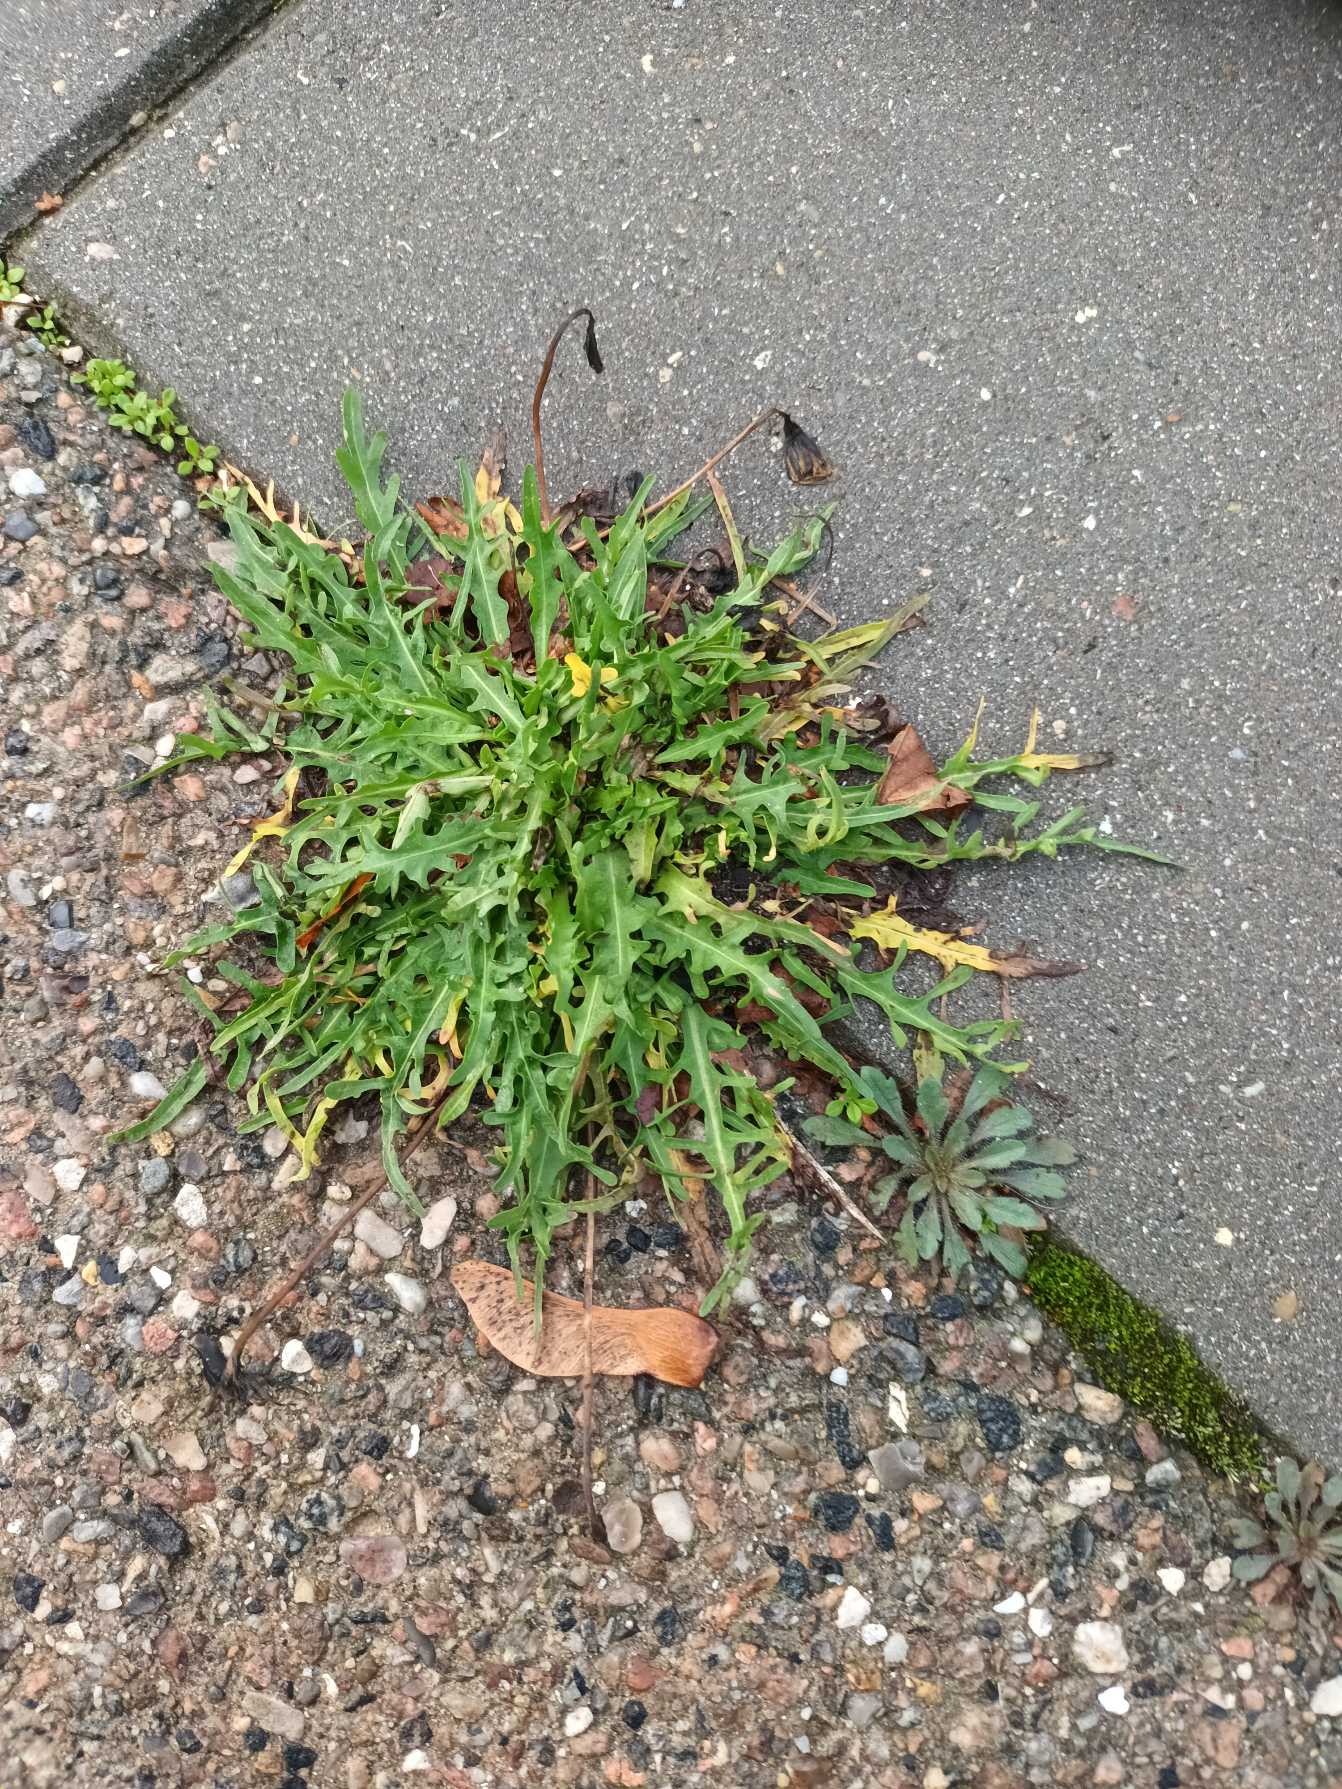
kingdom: Plantae
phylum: Tracheophyta
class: Magnoliopsida
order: Asterales
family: Asteraceae
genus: Scorzoneroides
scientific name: Scorzoneroides autumnalis
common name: Høst-borst
